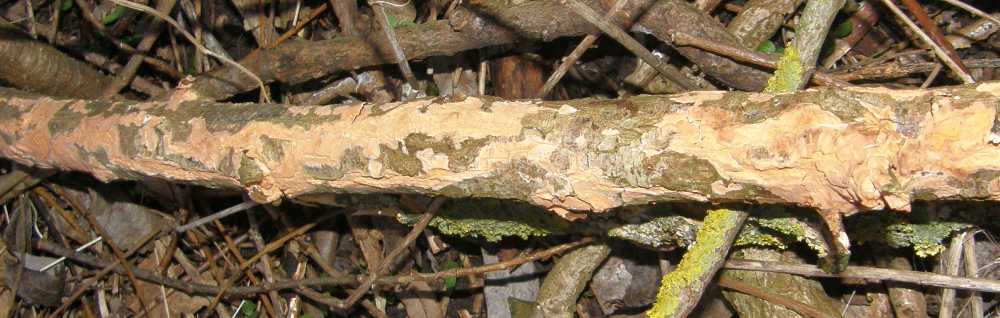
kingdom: Fungi
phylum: Basidiomycota
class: Agaricomycetes
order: Russulales
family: Peniophoraceae
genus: Peniophora
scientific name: Peniophora incarnata
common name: laksefarvet voksskind
